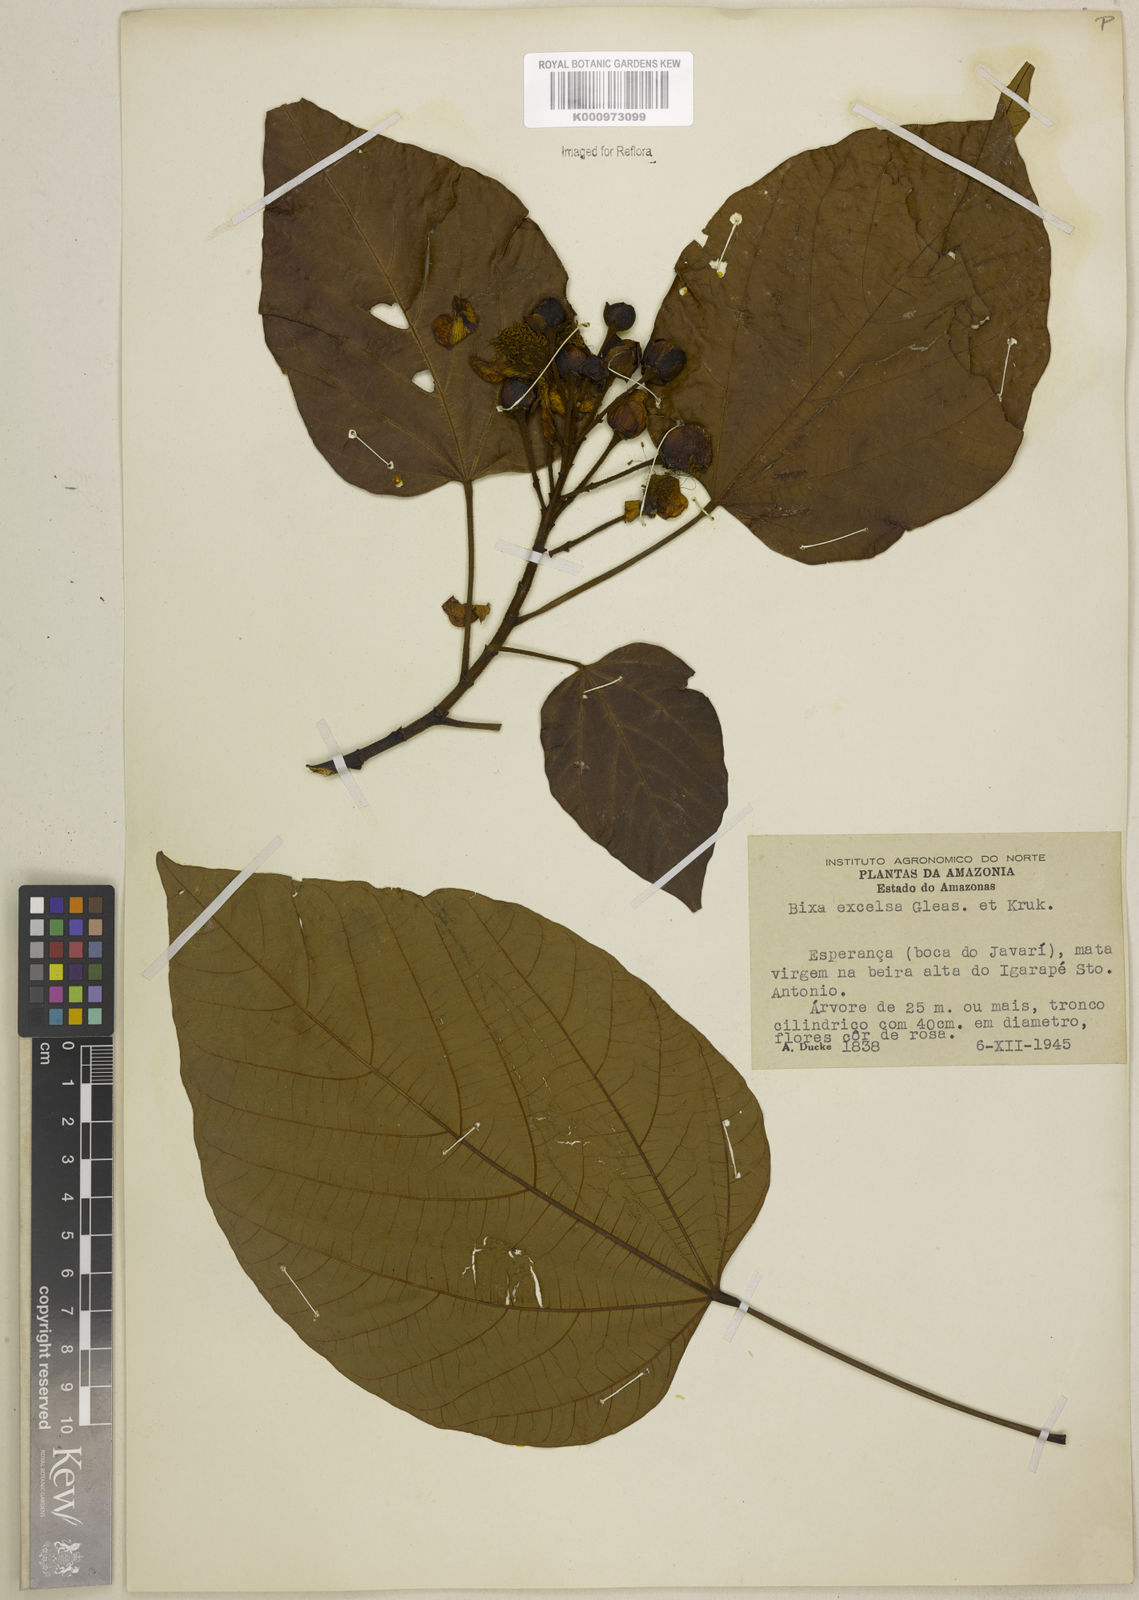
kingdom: Plantae
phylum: Tracheophyta
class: Magnoliopsida
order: Malvales
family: Bixaceae
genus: Bixa
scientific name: Bixa excelsa
